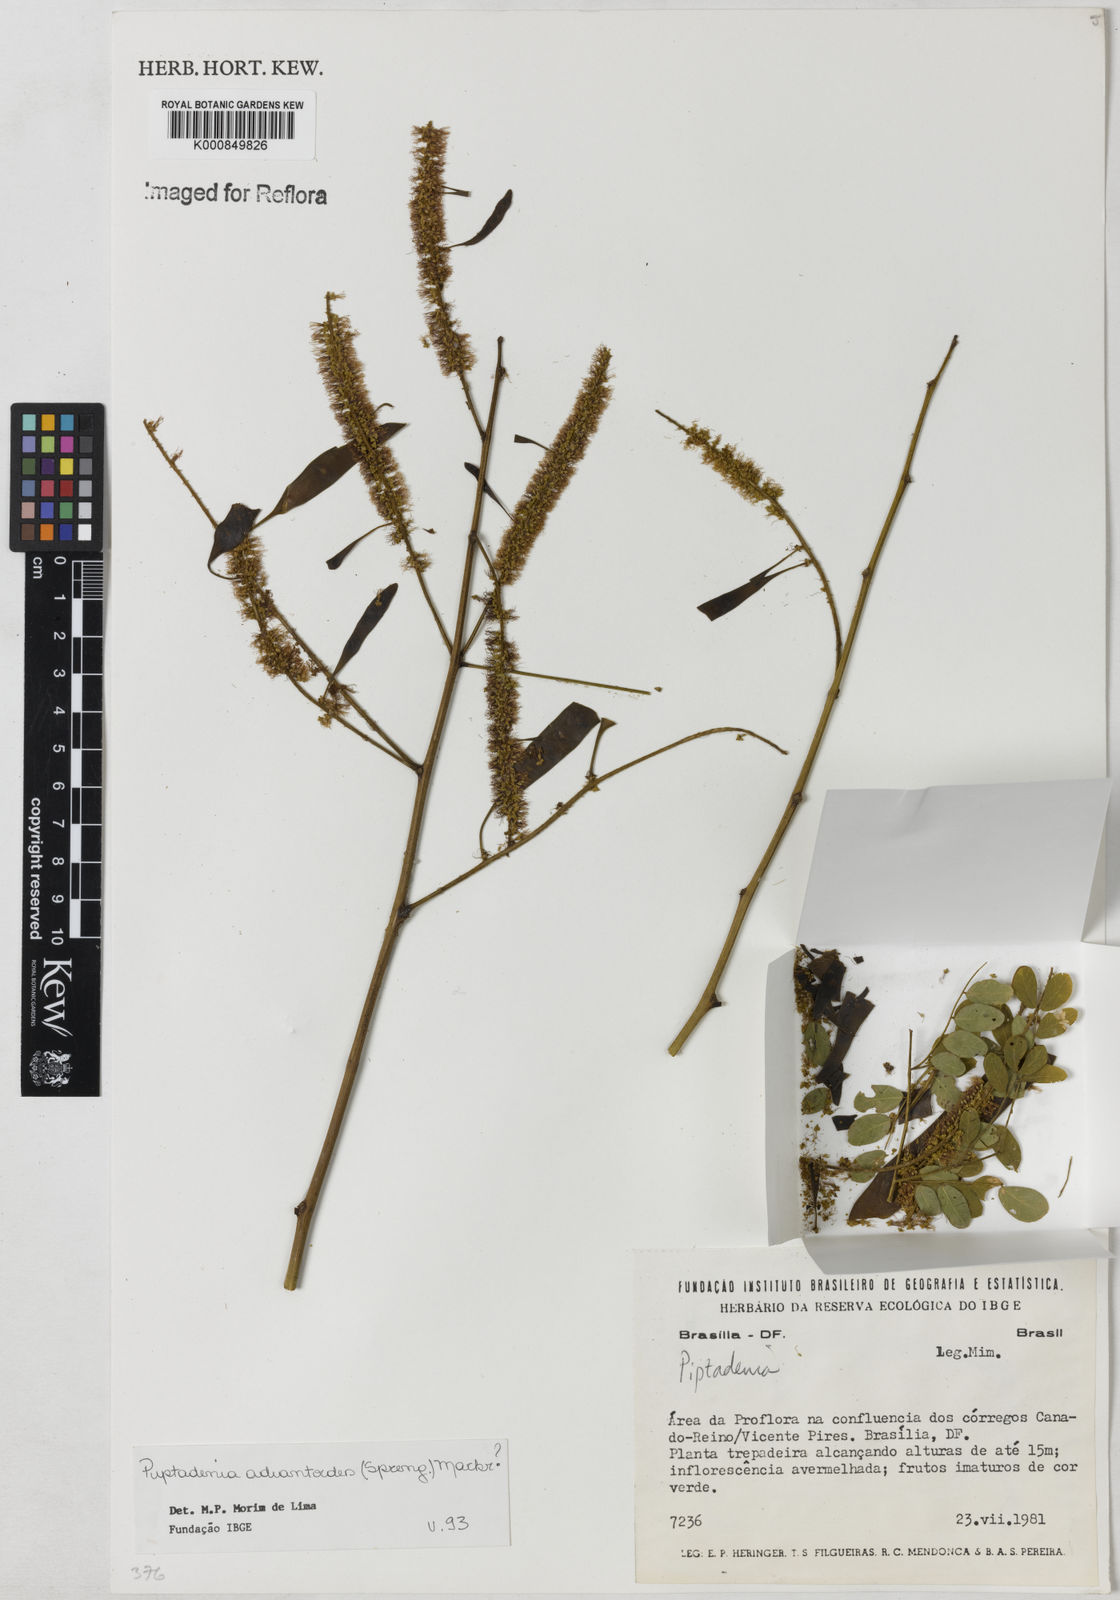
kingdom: Plantae
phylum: Tracheophyta
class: Magnoliopsida
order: Fabales
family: Fabaceae
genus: Piptadenia
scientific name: Piptadenia adiantoides
